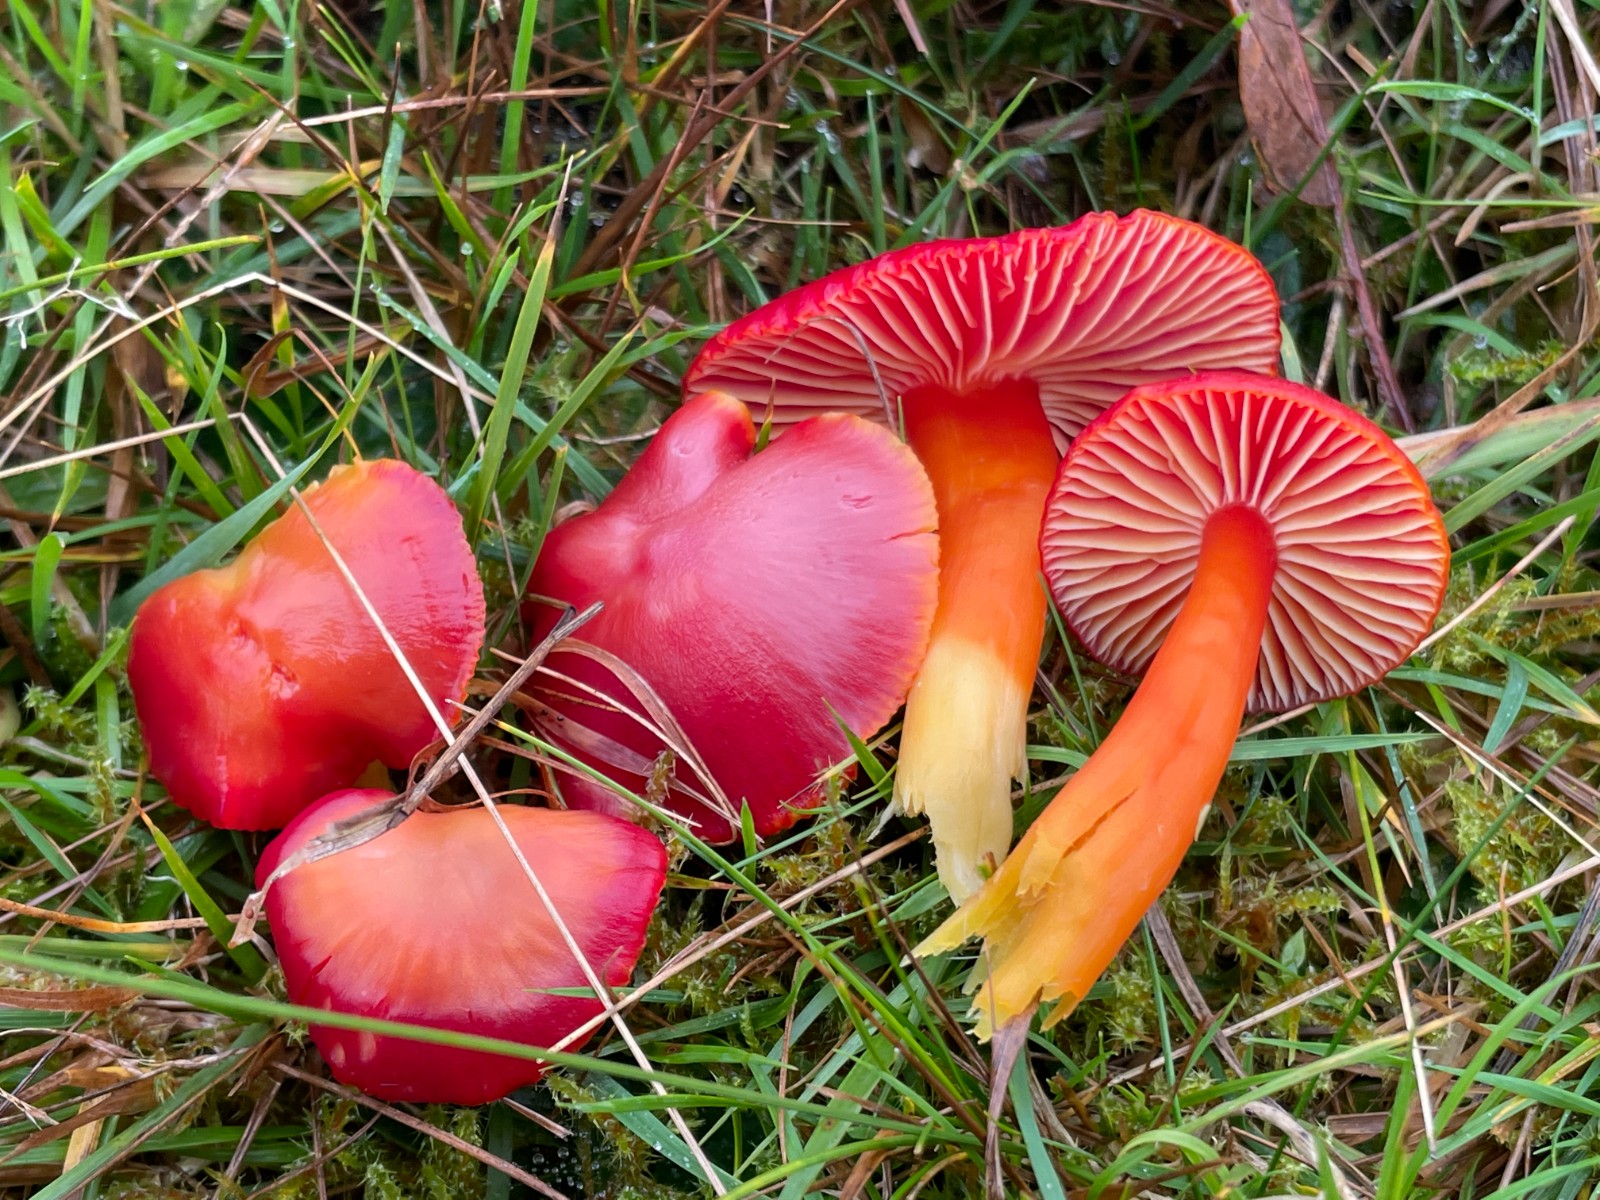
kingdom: Fungi
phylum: Basidiomycota
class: Agaricomycetes
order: Agaricales
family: Hygrophoraceae
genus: Hygrocybe
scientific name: Hygrocybe coccinea
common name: cinnober-vokshat
